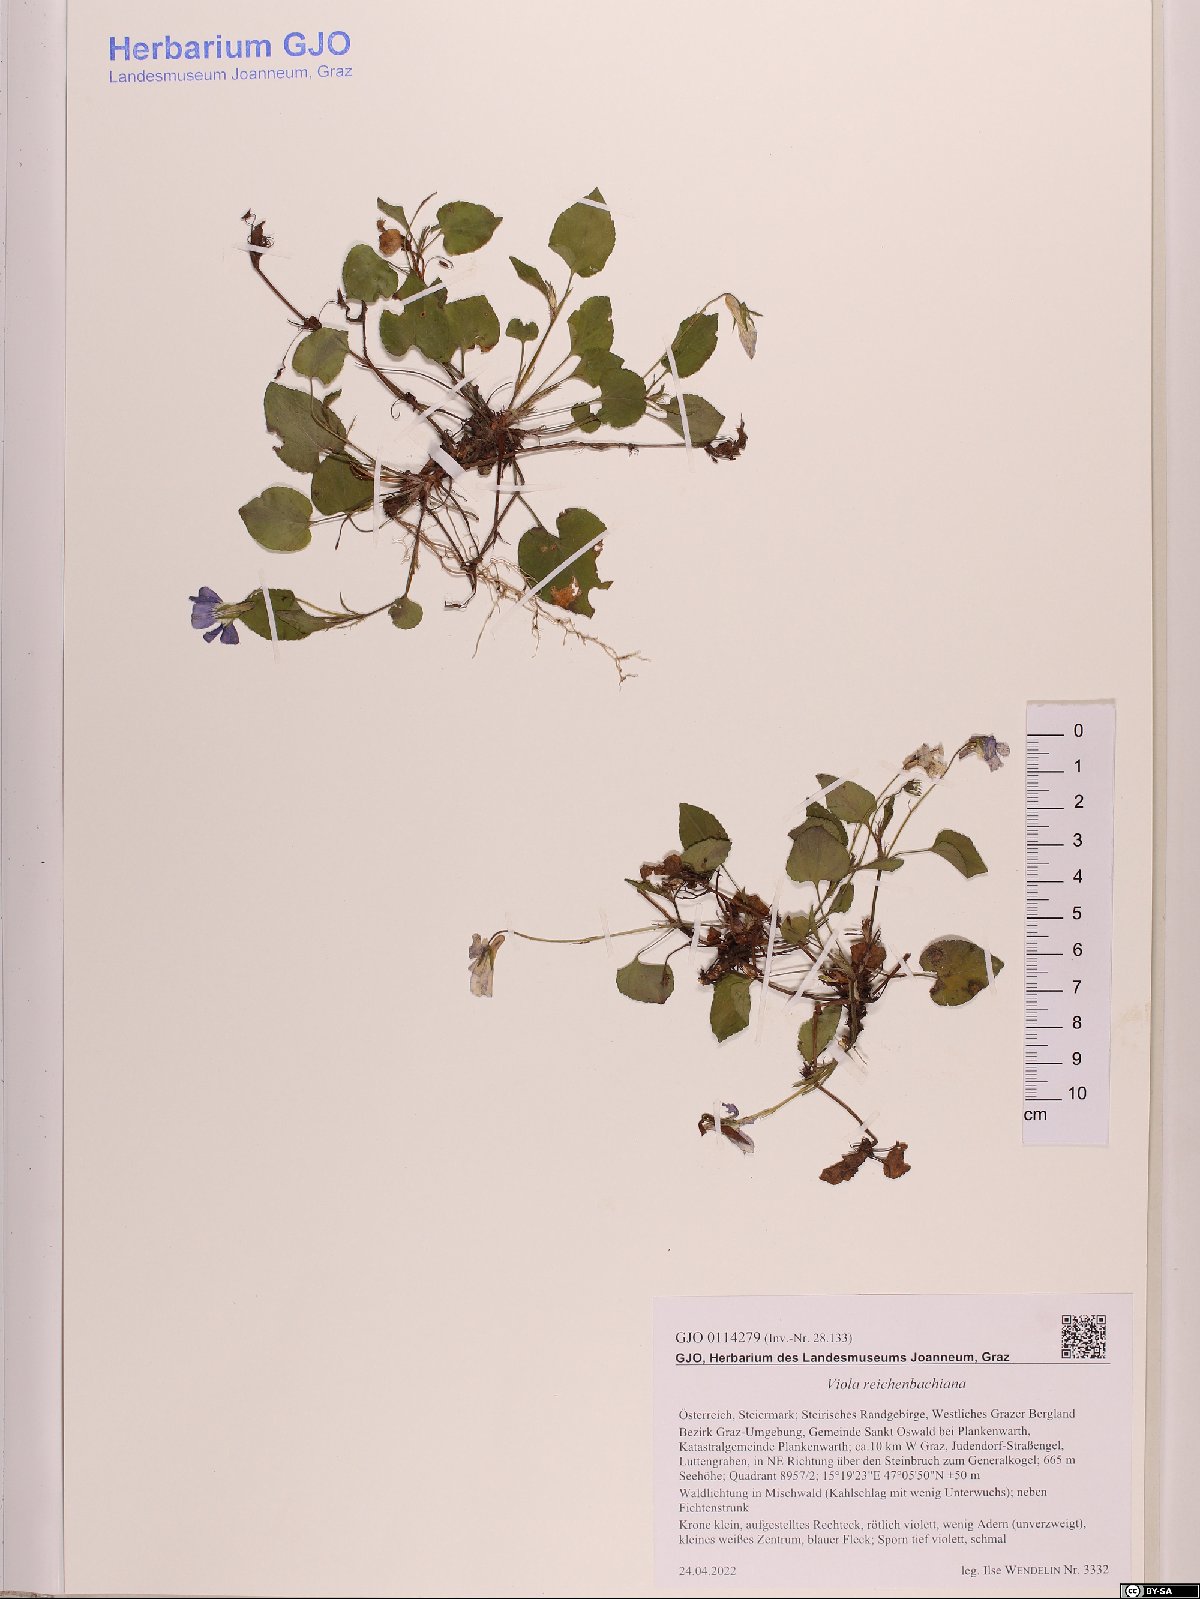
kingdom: Plantae
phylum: Tracheophyta
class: Magnoliopsida
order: Malpighiales
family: Violaceae
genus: Viola
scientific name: Viola reichenbachiana
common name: Early dog-violet
